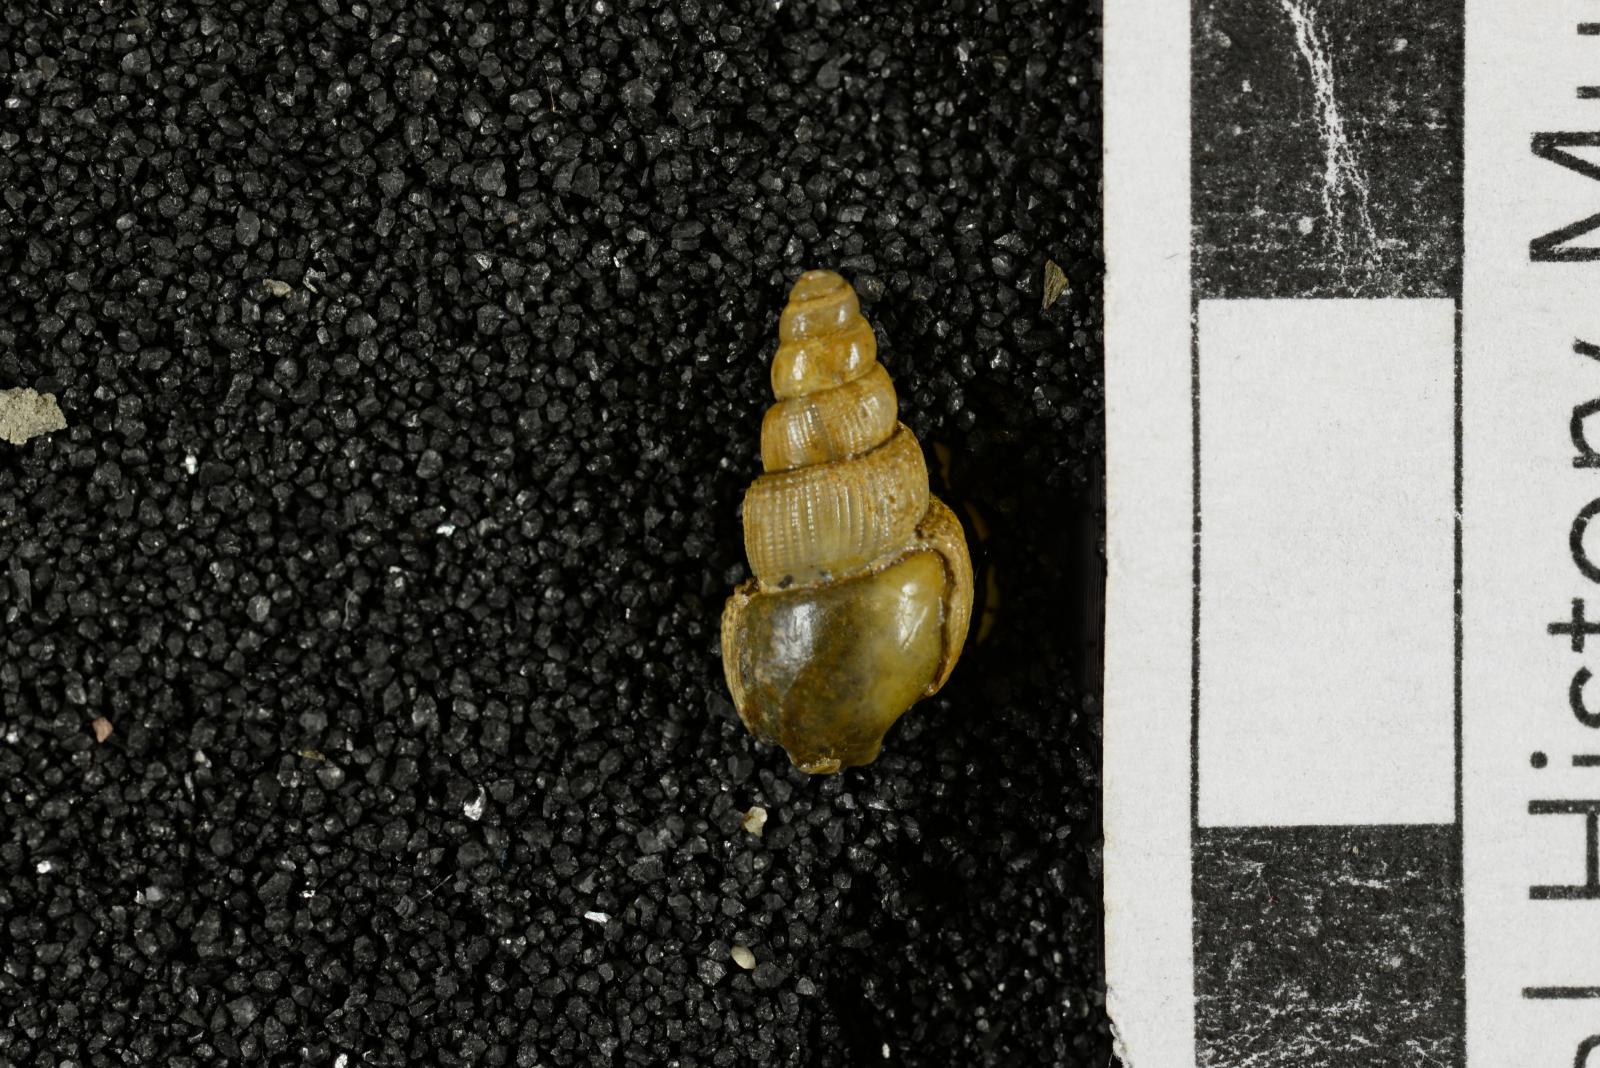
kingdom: Animalia
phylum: Mollusca
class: Gastropoda
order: Littorinimorpha
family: Aporrhaidae
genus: Latiala
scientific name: Latiala sigma
